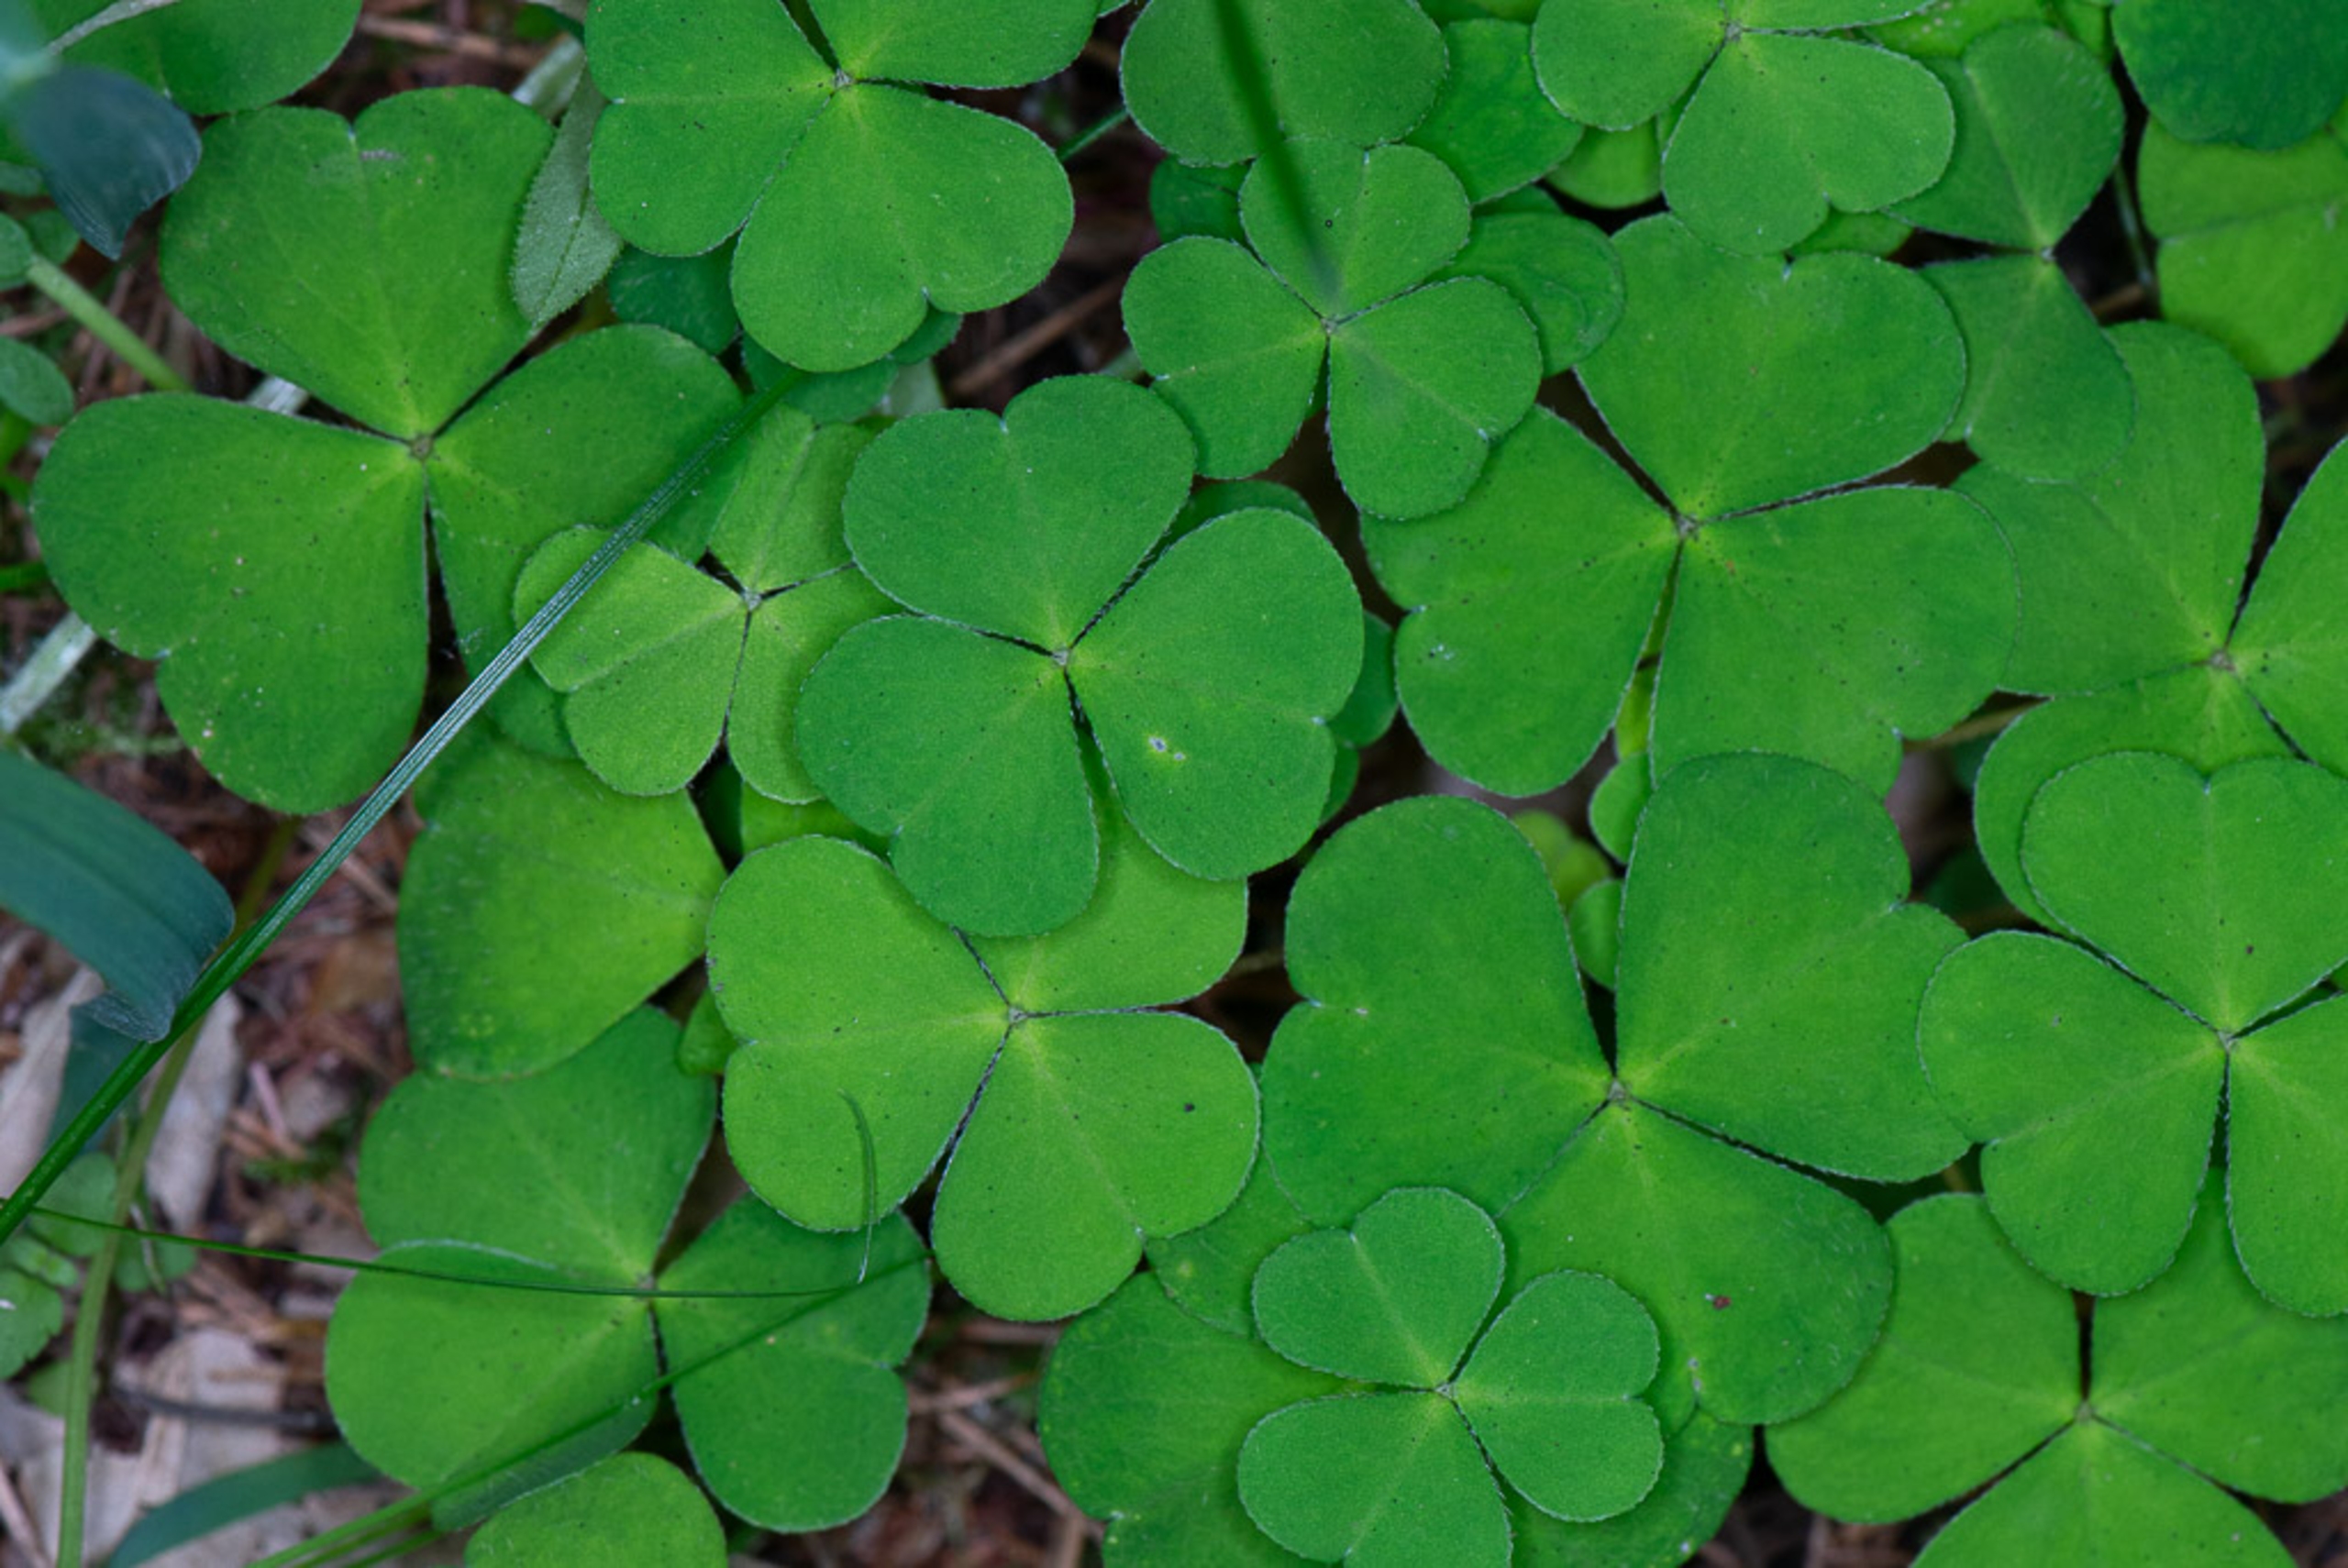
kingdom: Plantae
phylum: Tracheophyta
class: Magnoliopsida
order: Oxalidales
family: Oxalidaceae
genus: Oxalis
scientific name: Oxalis acetosella
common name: Skovsyre
